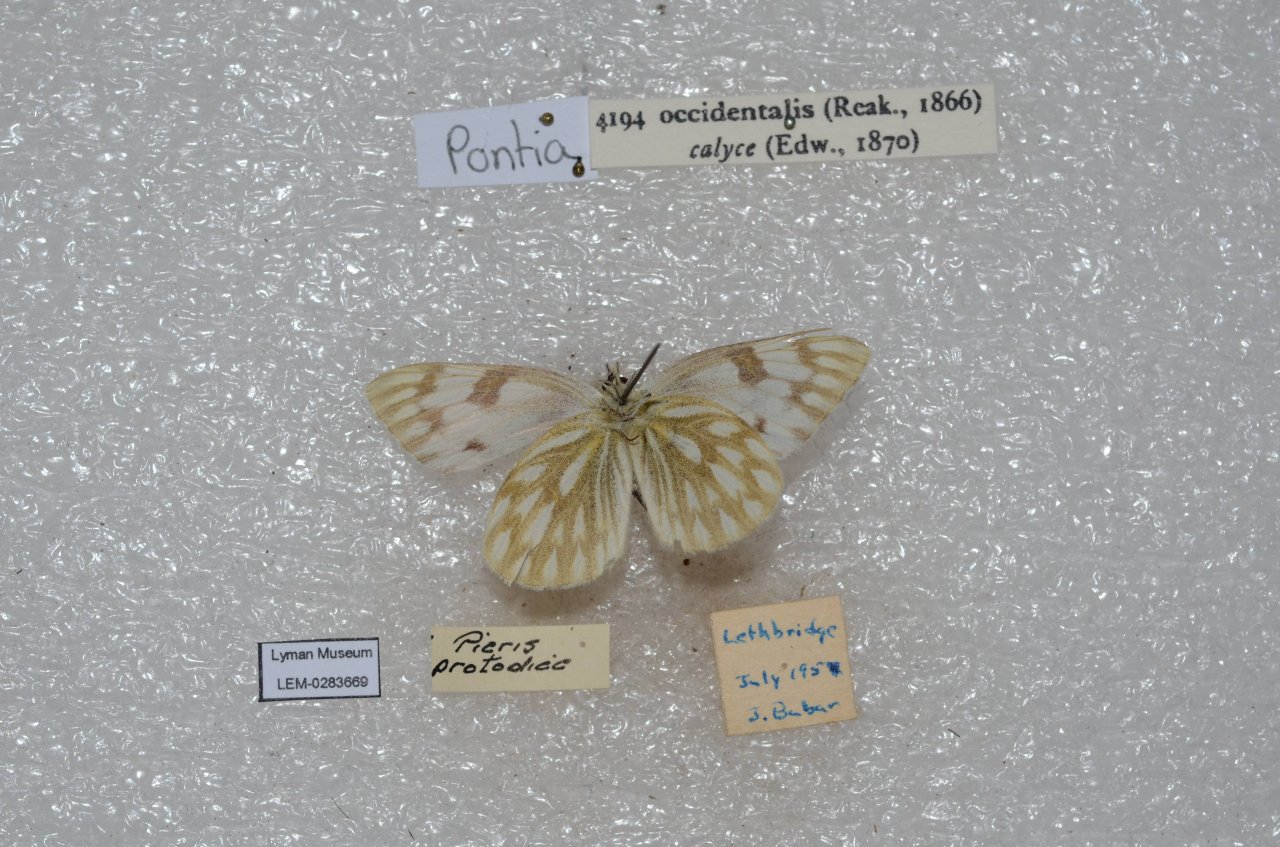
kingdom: Animalia
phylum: Arthropoda
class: Insecta
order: Lepidoptera
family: Pieridae
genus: Pontia
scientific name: Pontia occidentalis
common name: Western White
